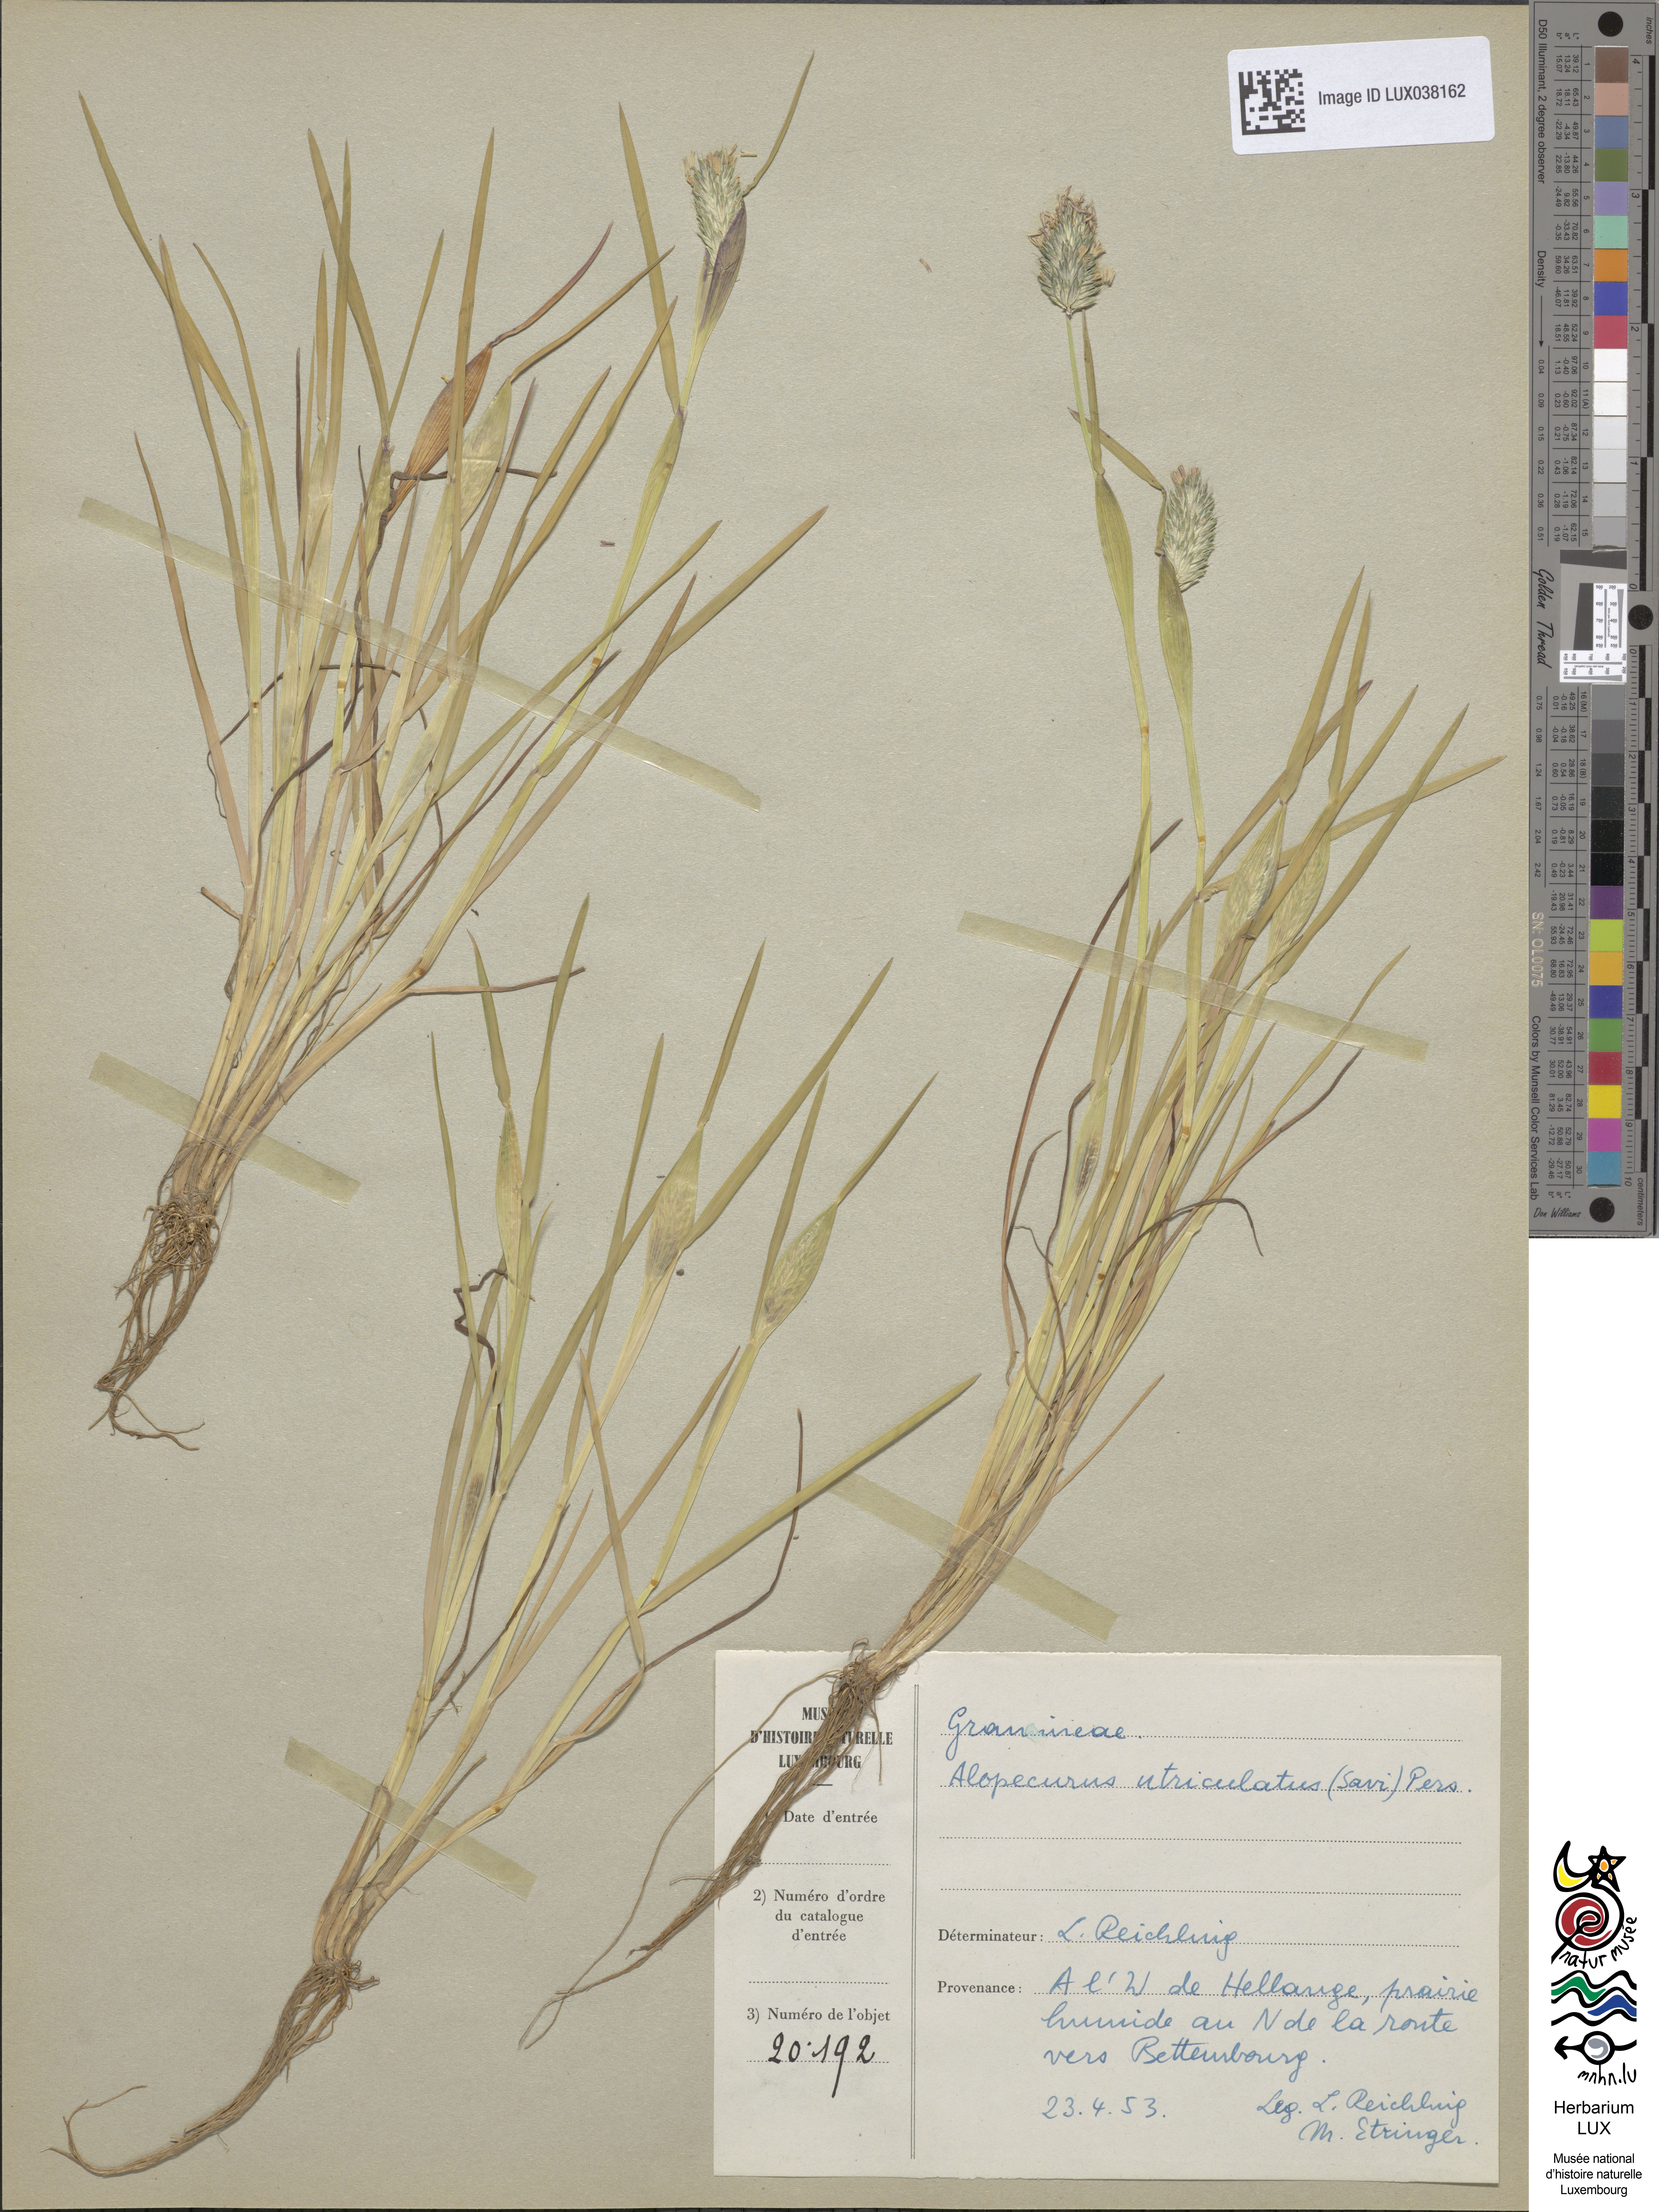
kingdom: Plantae
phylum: Tracheophyta
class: Liliopsida
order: Poales
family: Poaceae
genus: Alopecurus
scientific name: Alopecurus rendlei
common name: Rendle's meadow foxtail
